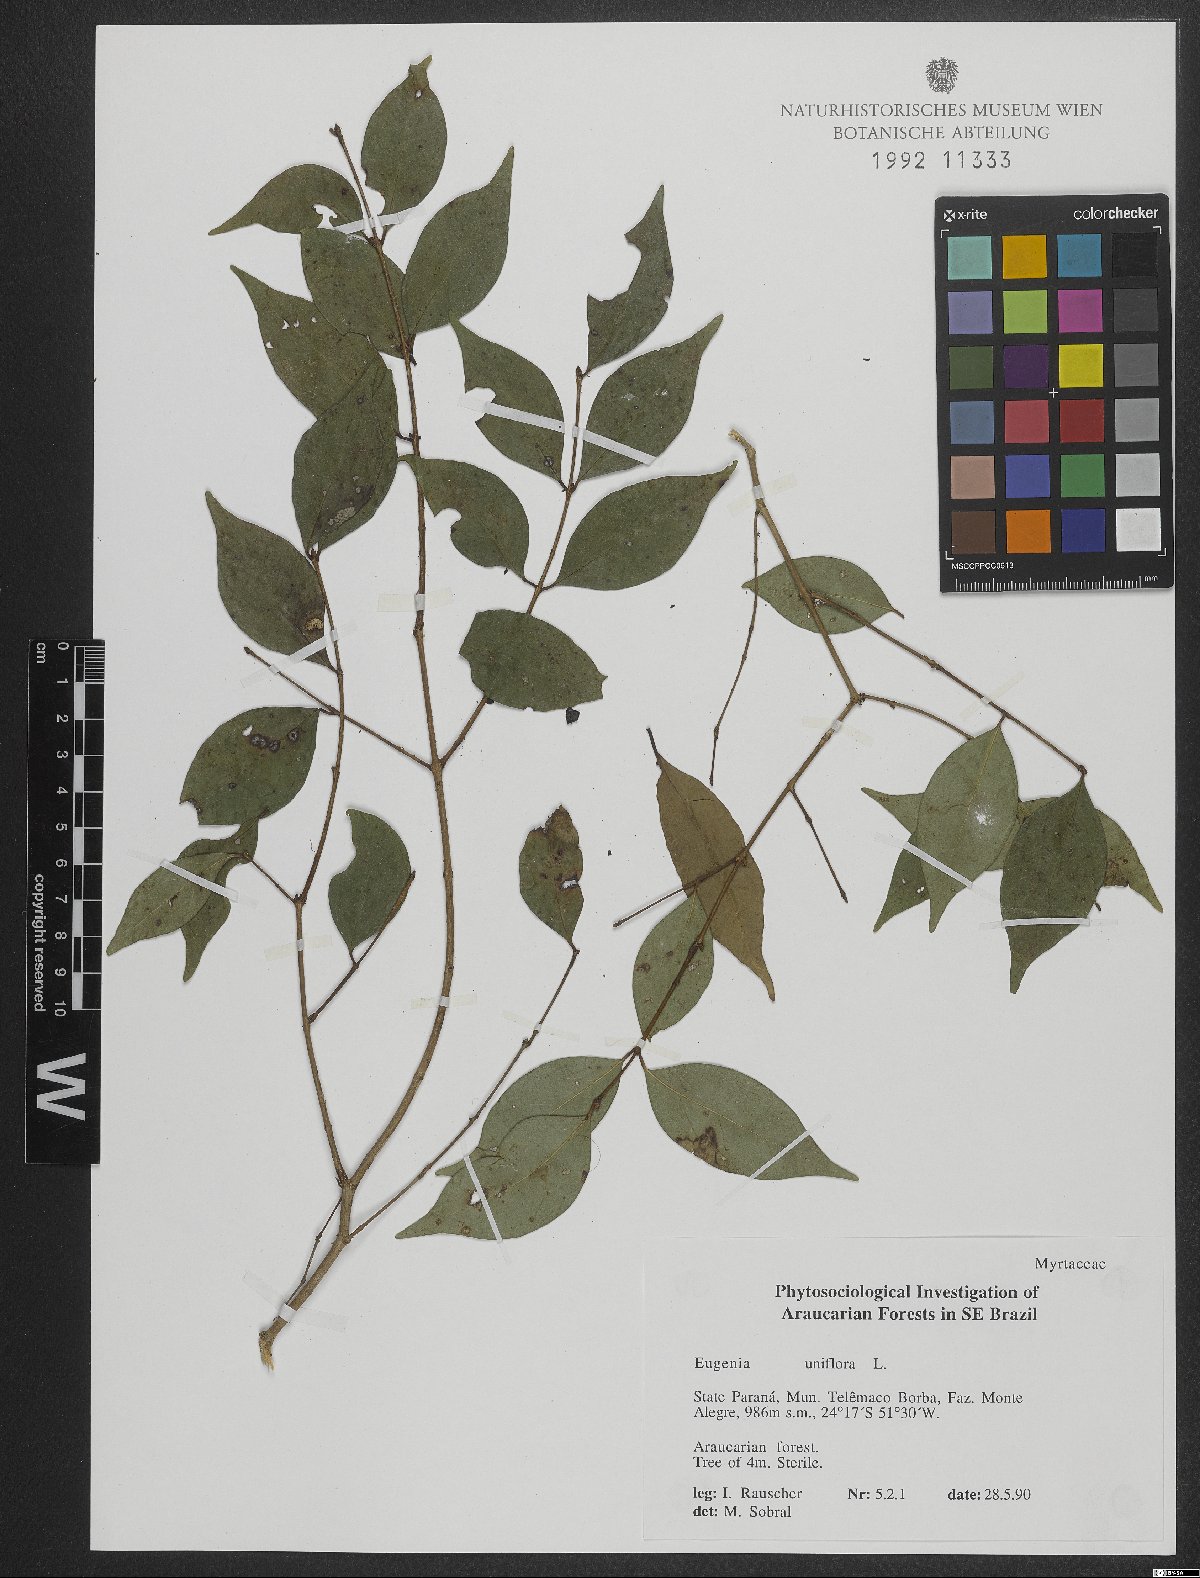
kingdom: Plantae
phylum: Tracheophyta
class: Magnoliopsida
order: Myrtales
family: Myrtaceae
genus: Eugenia
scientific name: Eugenia uniflora
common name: Surinam cherry
